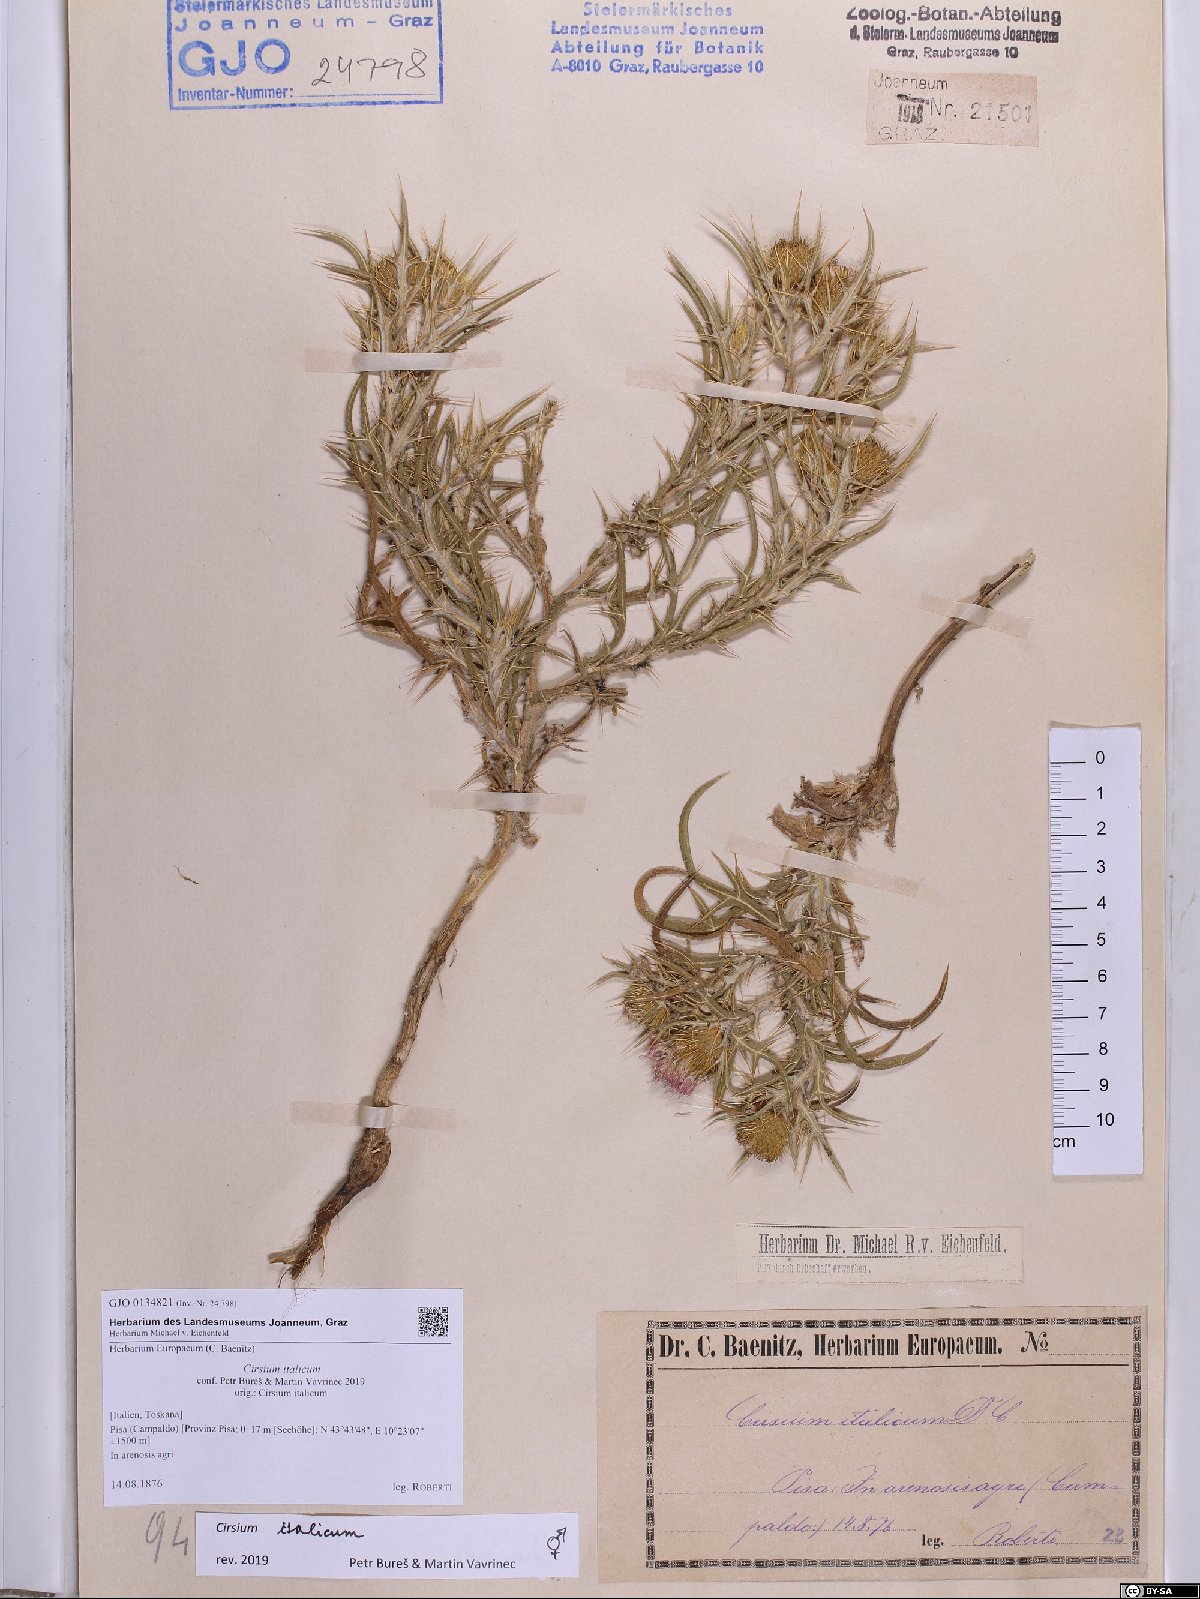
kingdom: Plantae
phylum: Tracheophyta
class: Magnoliopsida
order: Asterales
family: Asteraceae
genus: Epitrachys
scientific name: Epitrachys italica
